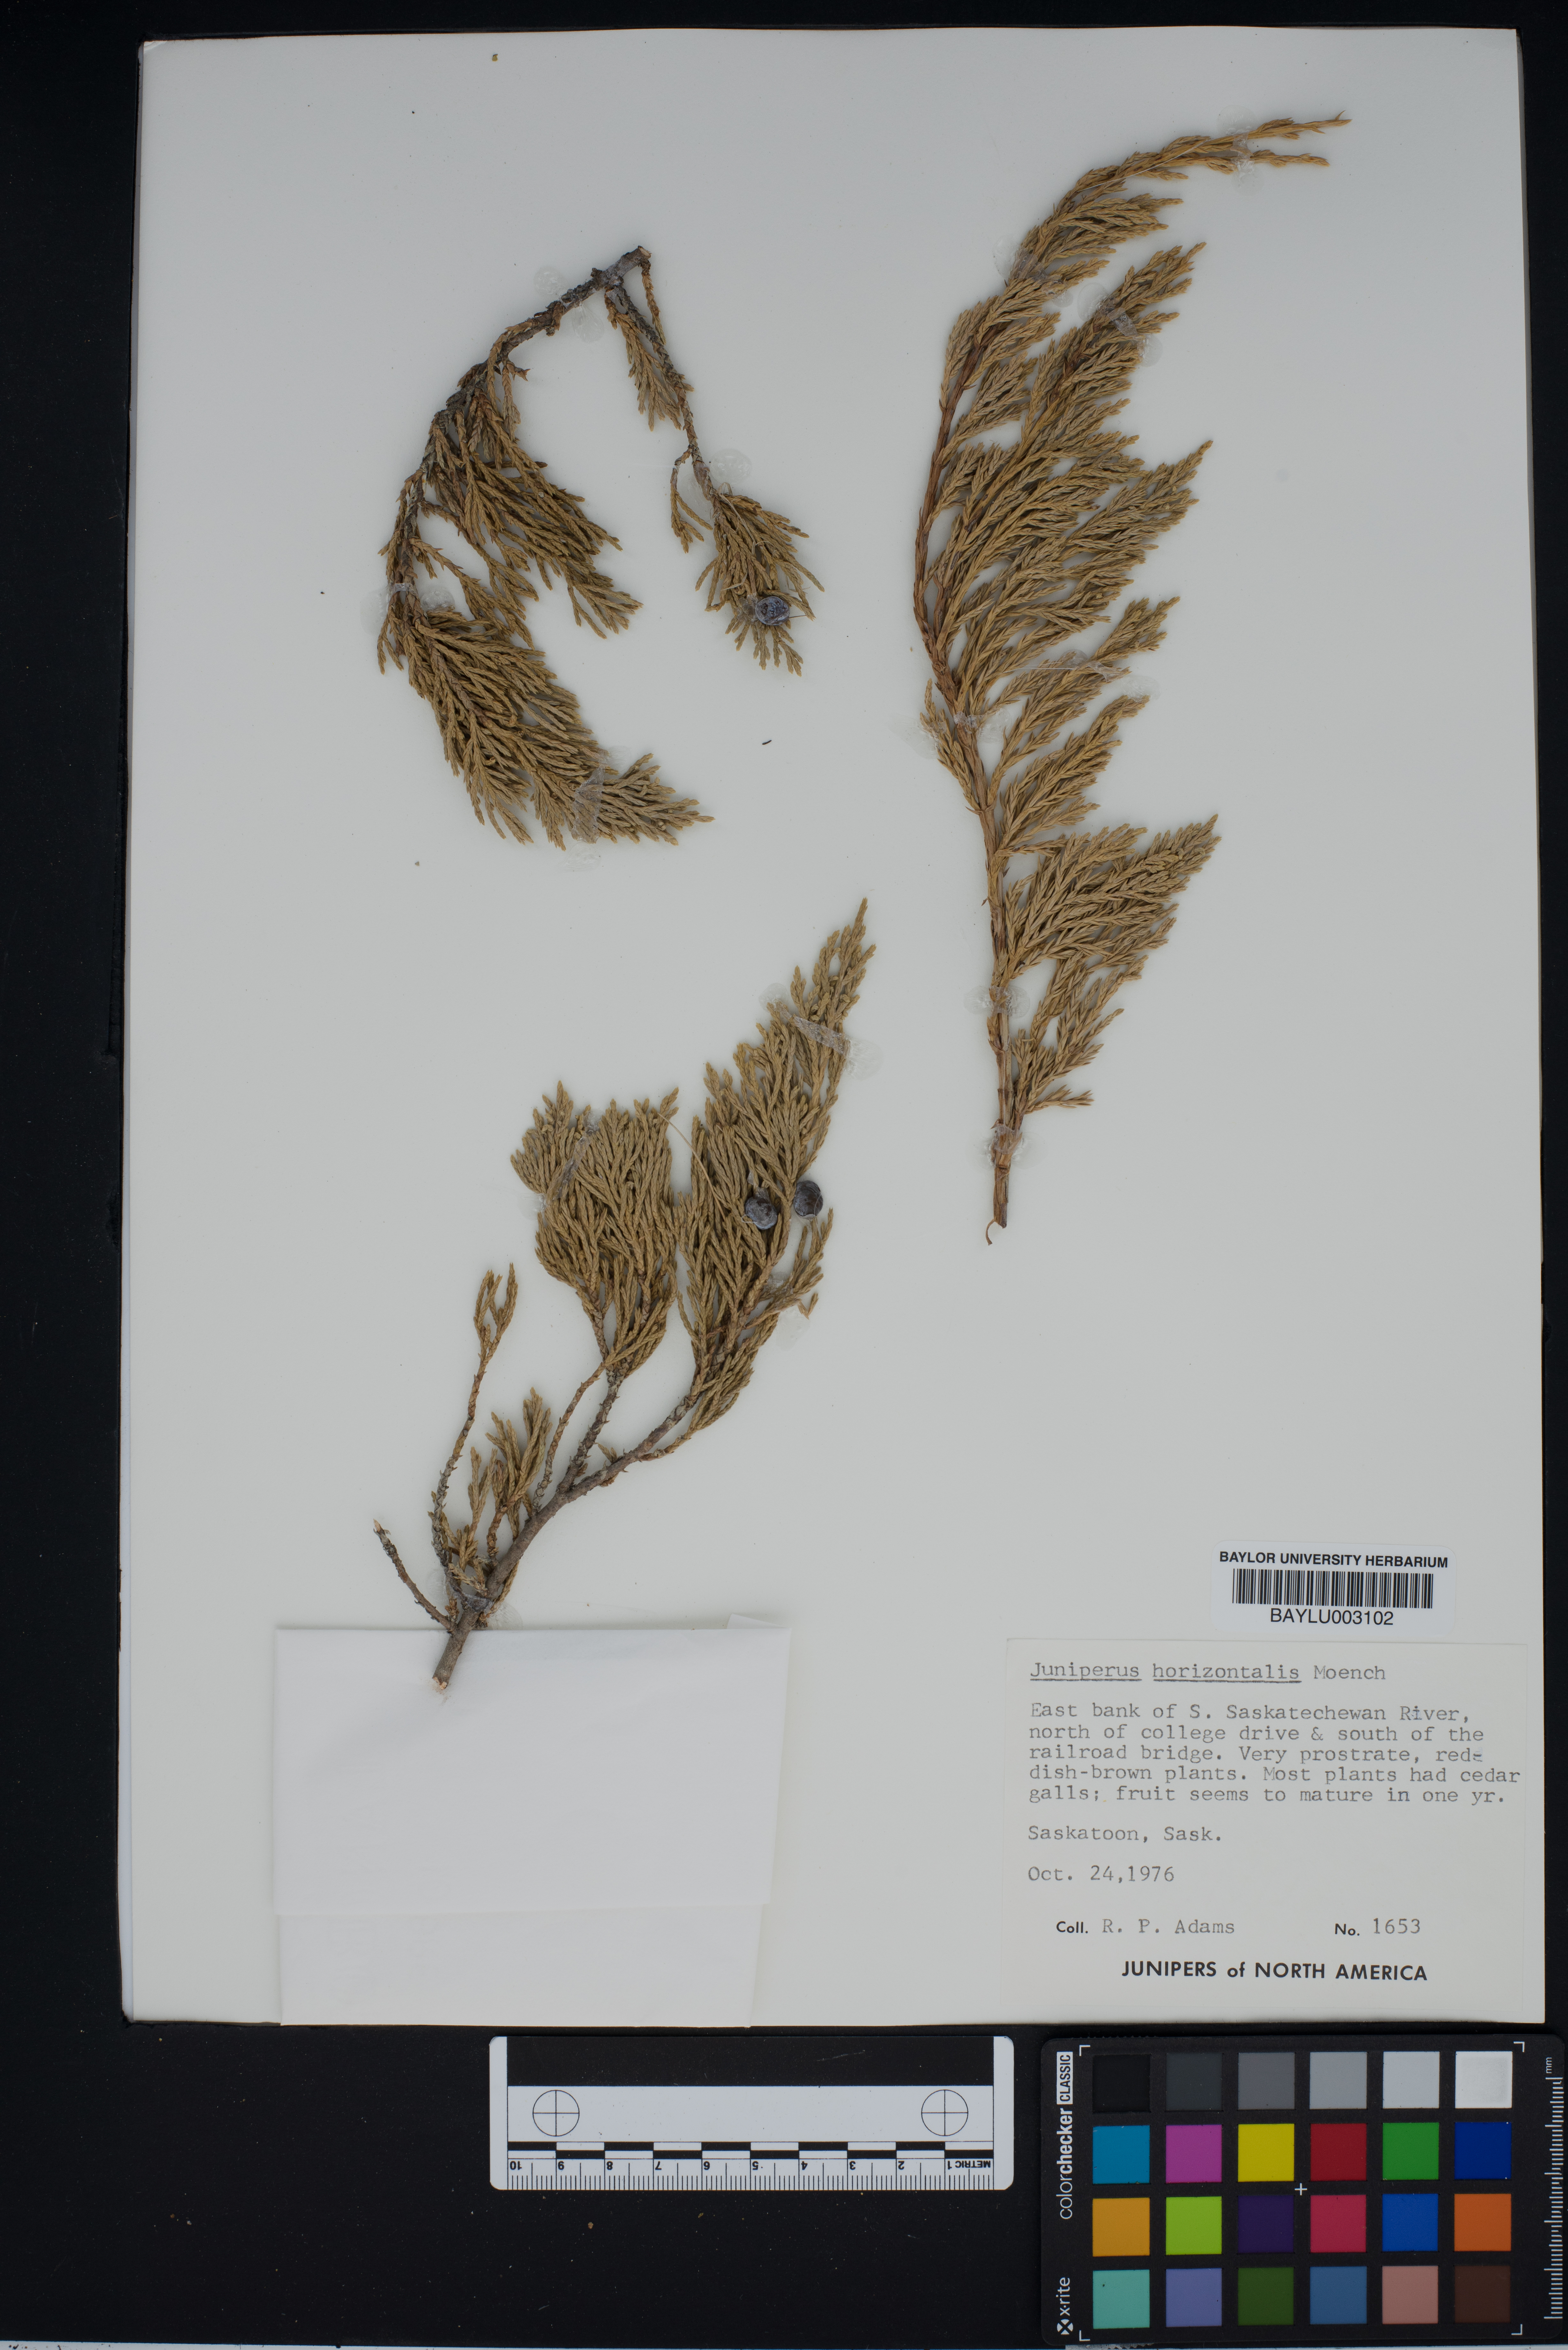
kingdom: Plantae
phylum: Tracheophyta
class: Pinopsida
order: Pinales
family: Cupressaceae
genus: Juniperus
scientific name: Juniperus horizontalis
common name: Creeping juniper
